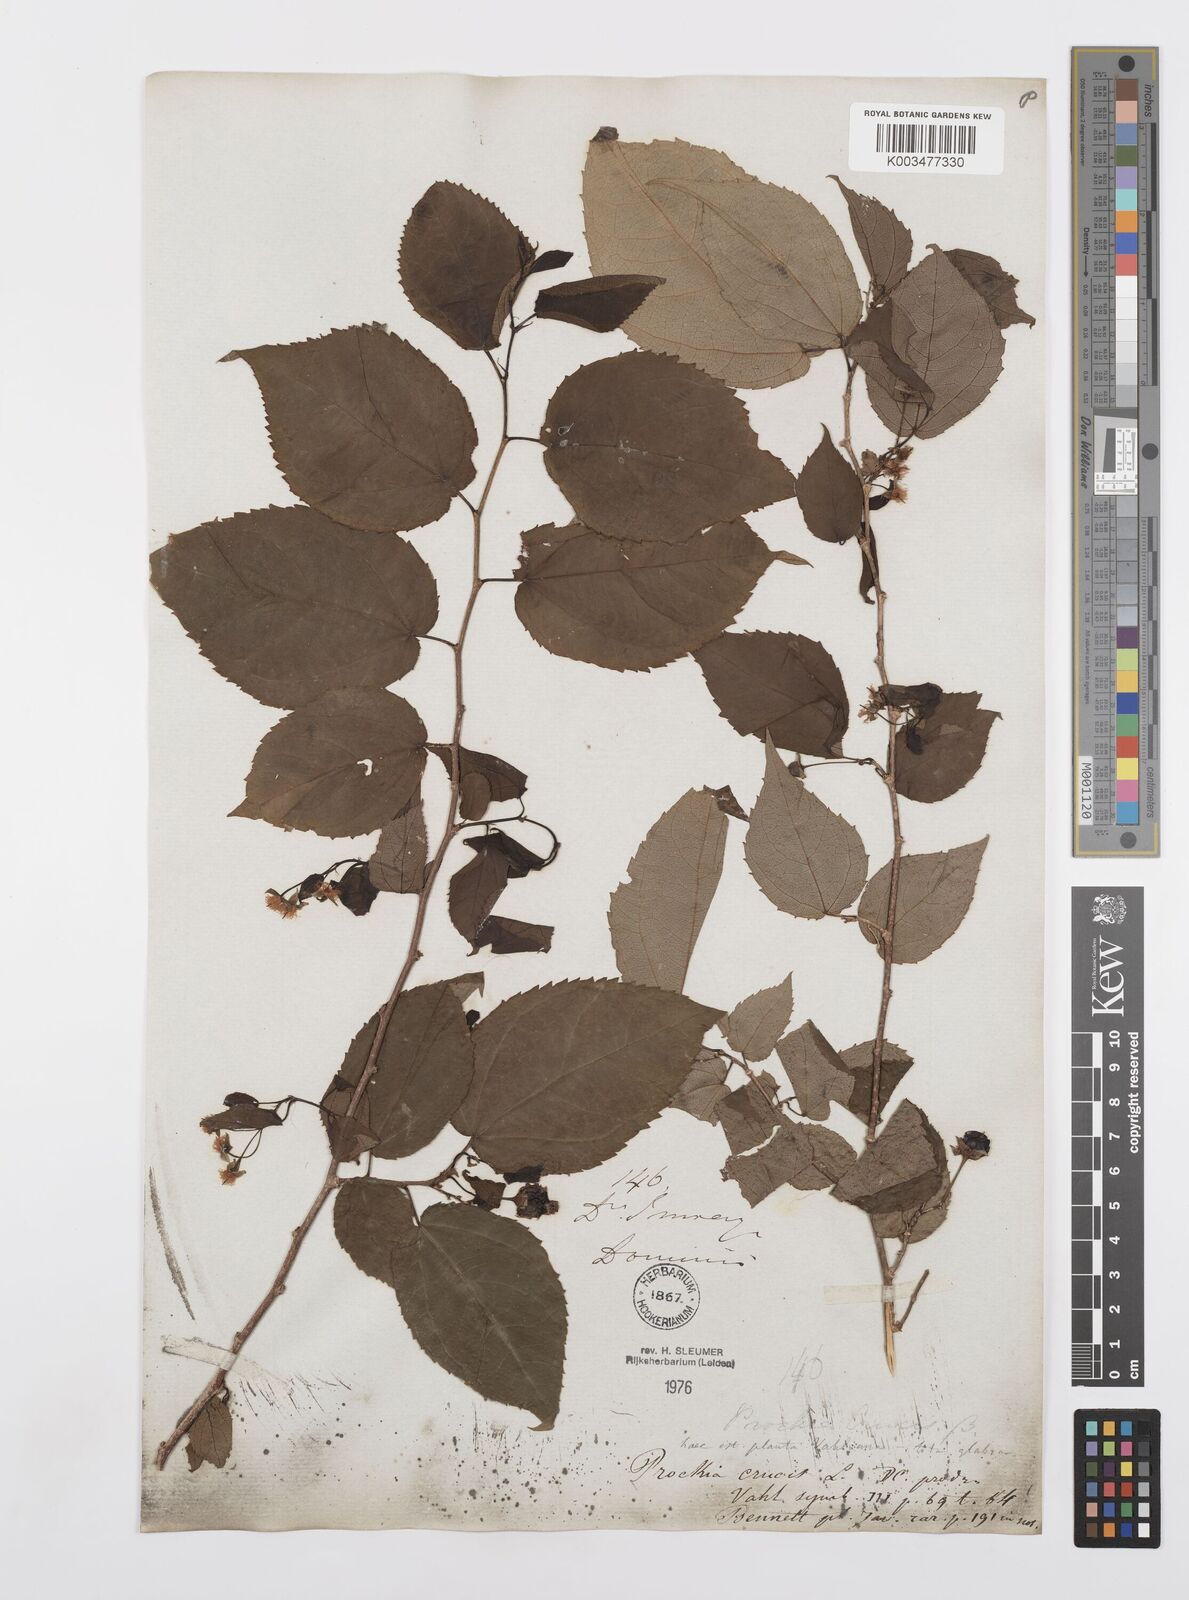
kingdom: Plantae
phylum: Tracheophyta
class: Magnoliopsida
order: Malpighiales
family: Salicaceae
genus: Prockia
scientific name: Prockia crucis
